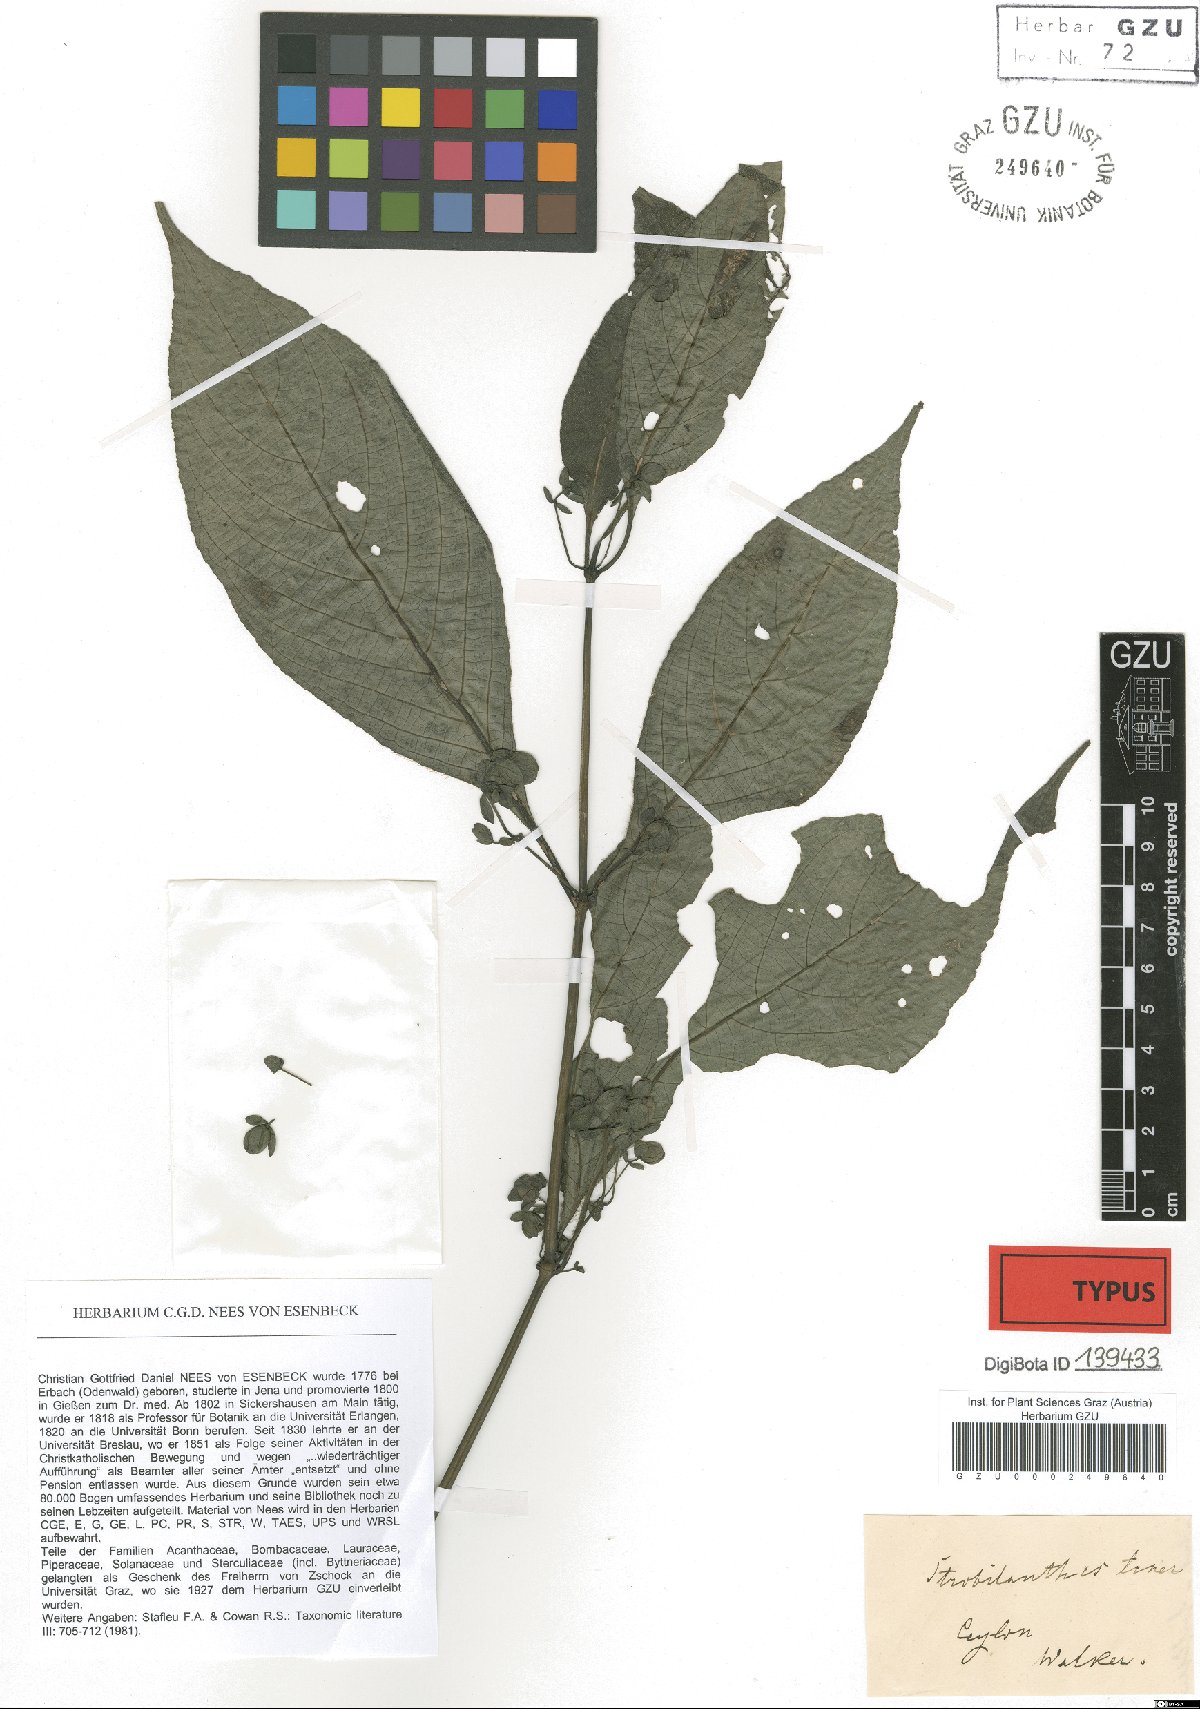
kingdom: Plantae
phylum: Tracheophyta
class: Magnoliopsida
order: Lamiales
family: Acanthaceae
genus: Strobilanthes
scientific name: Strobilanthes heyneana
